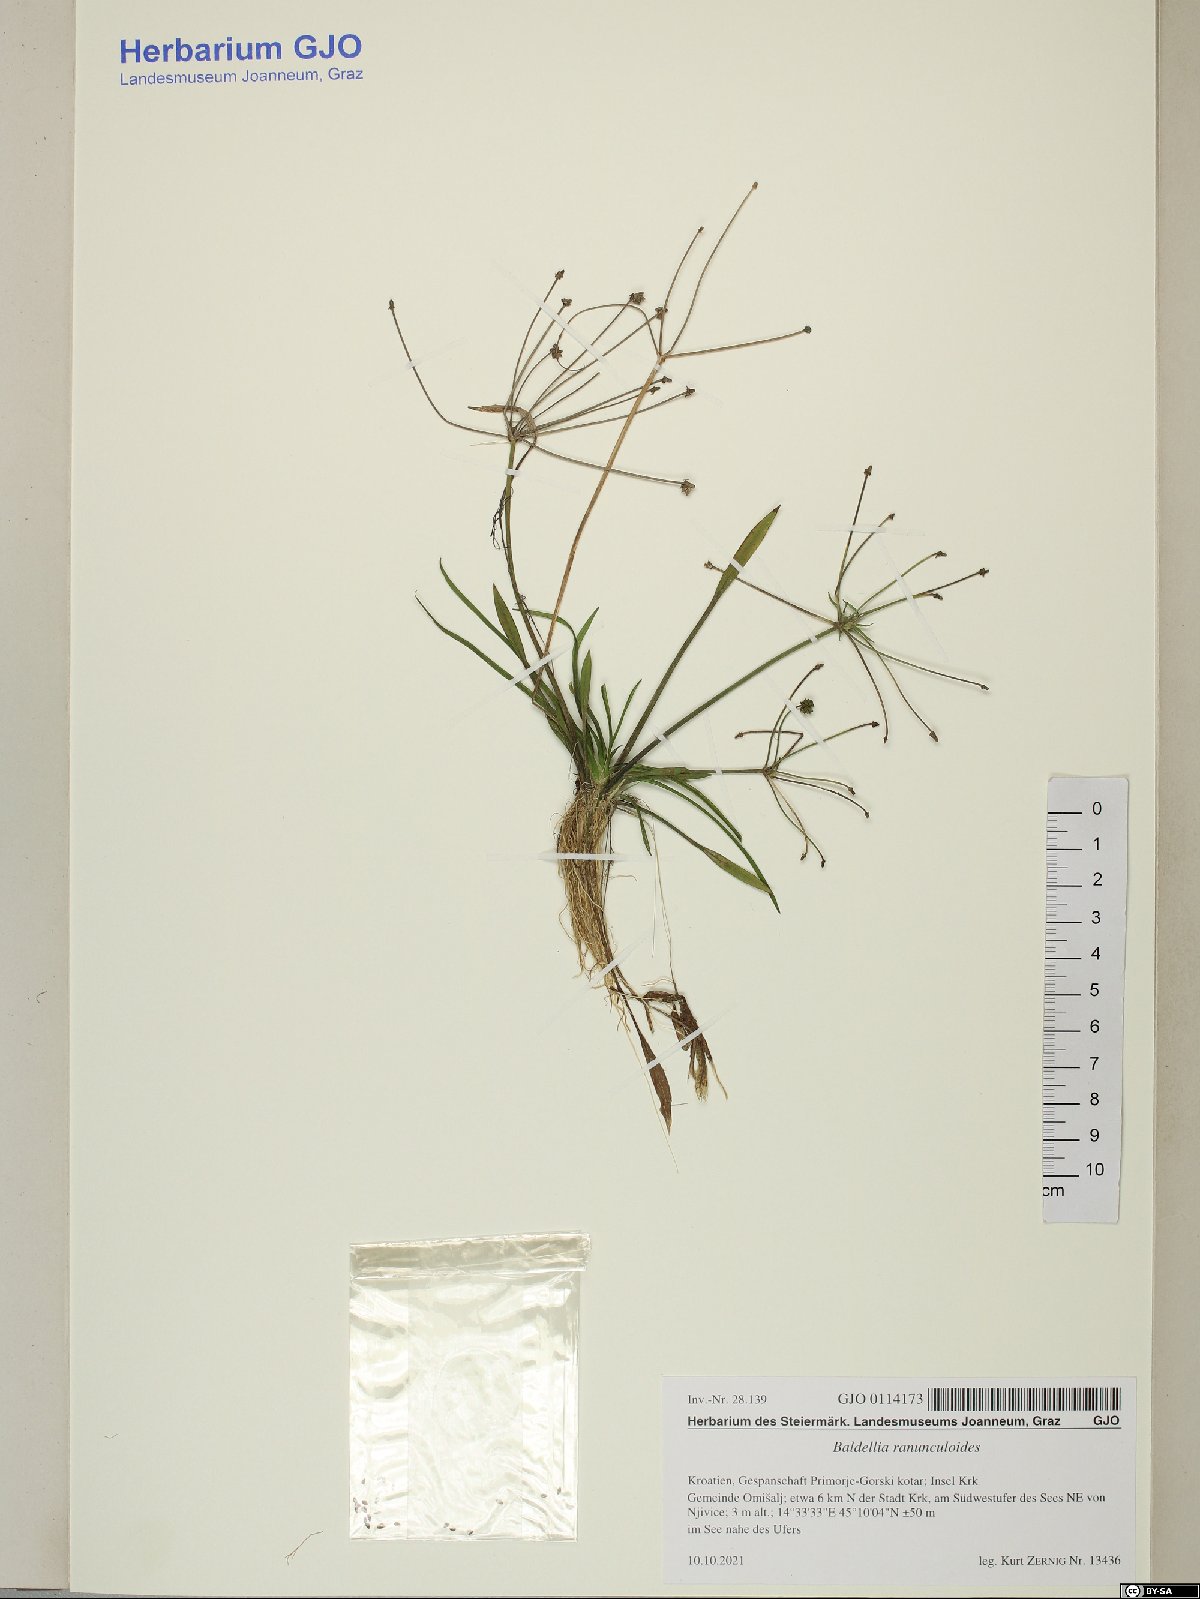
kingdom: Plantae
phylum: Tracheophyta
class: Liliopsida
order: Alismatales
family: Alismataceae
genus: Baldellia
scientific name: Baldellia ranunculoides
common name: Lesser water-plantain
